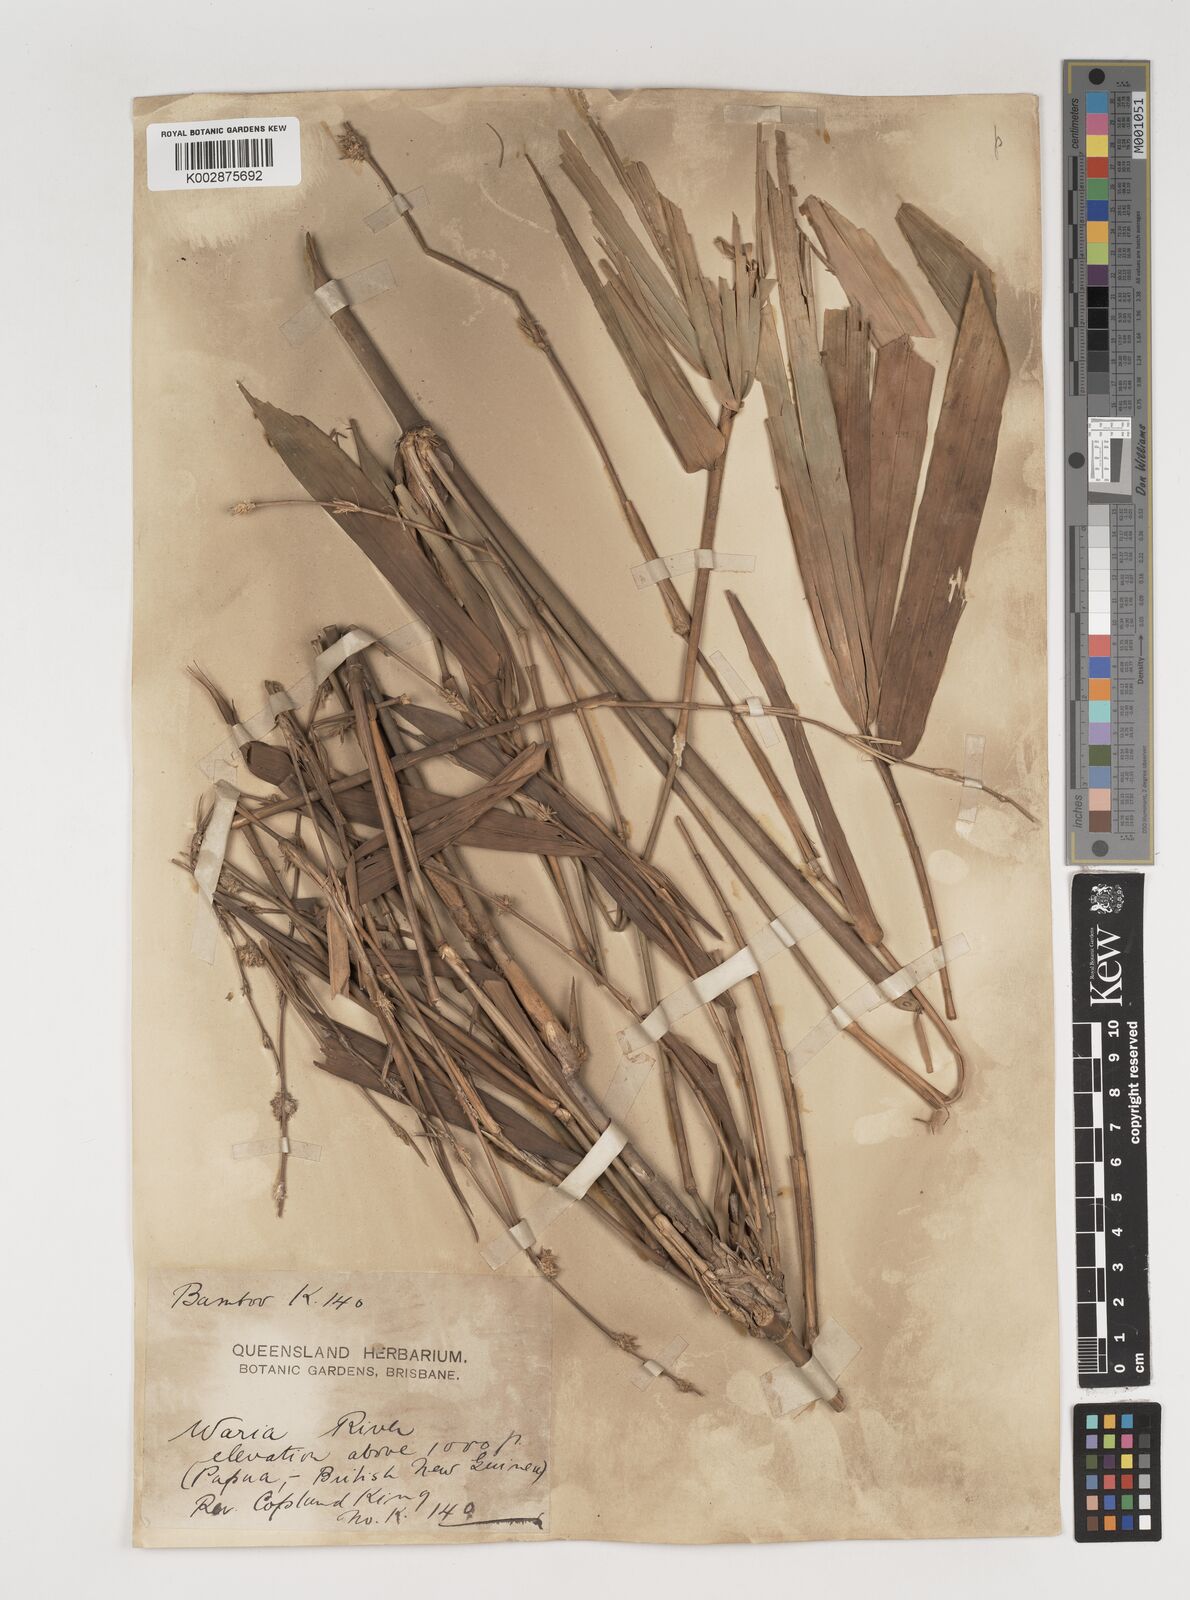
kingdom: Plantae
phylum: Tracheophyta
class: Liliopsida
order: Poales
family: Poaceae
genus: Neololeba
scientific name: Neololeba atra
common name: Cape bamboo
